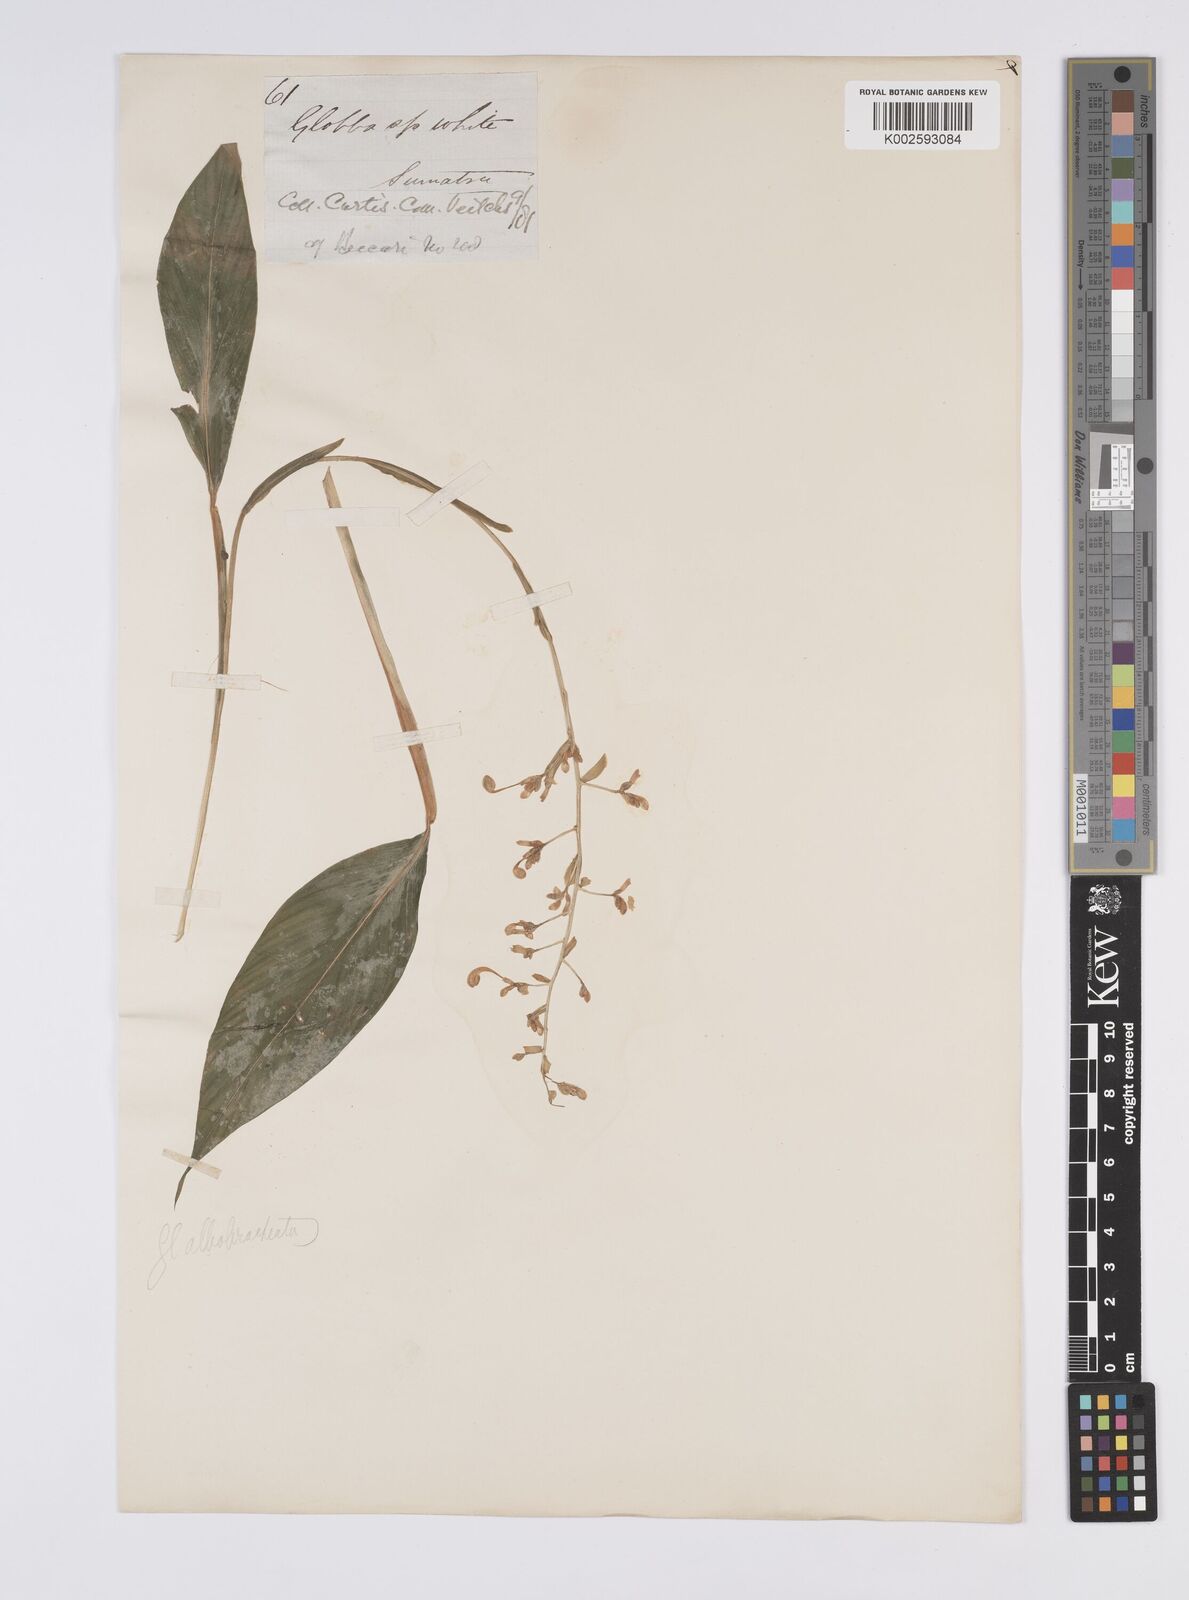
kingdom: Plantae
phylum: Tracheophyta
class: Liliopsida
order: Zingiberales
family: Zingiberaceae
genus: Globba
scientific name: Globba albobracteata
